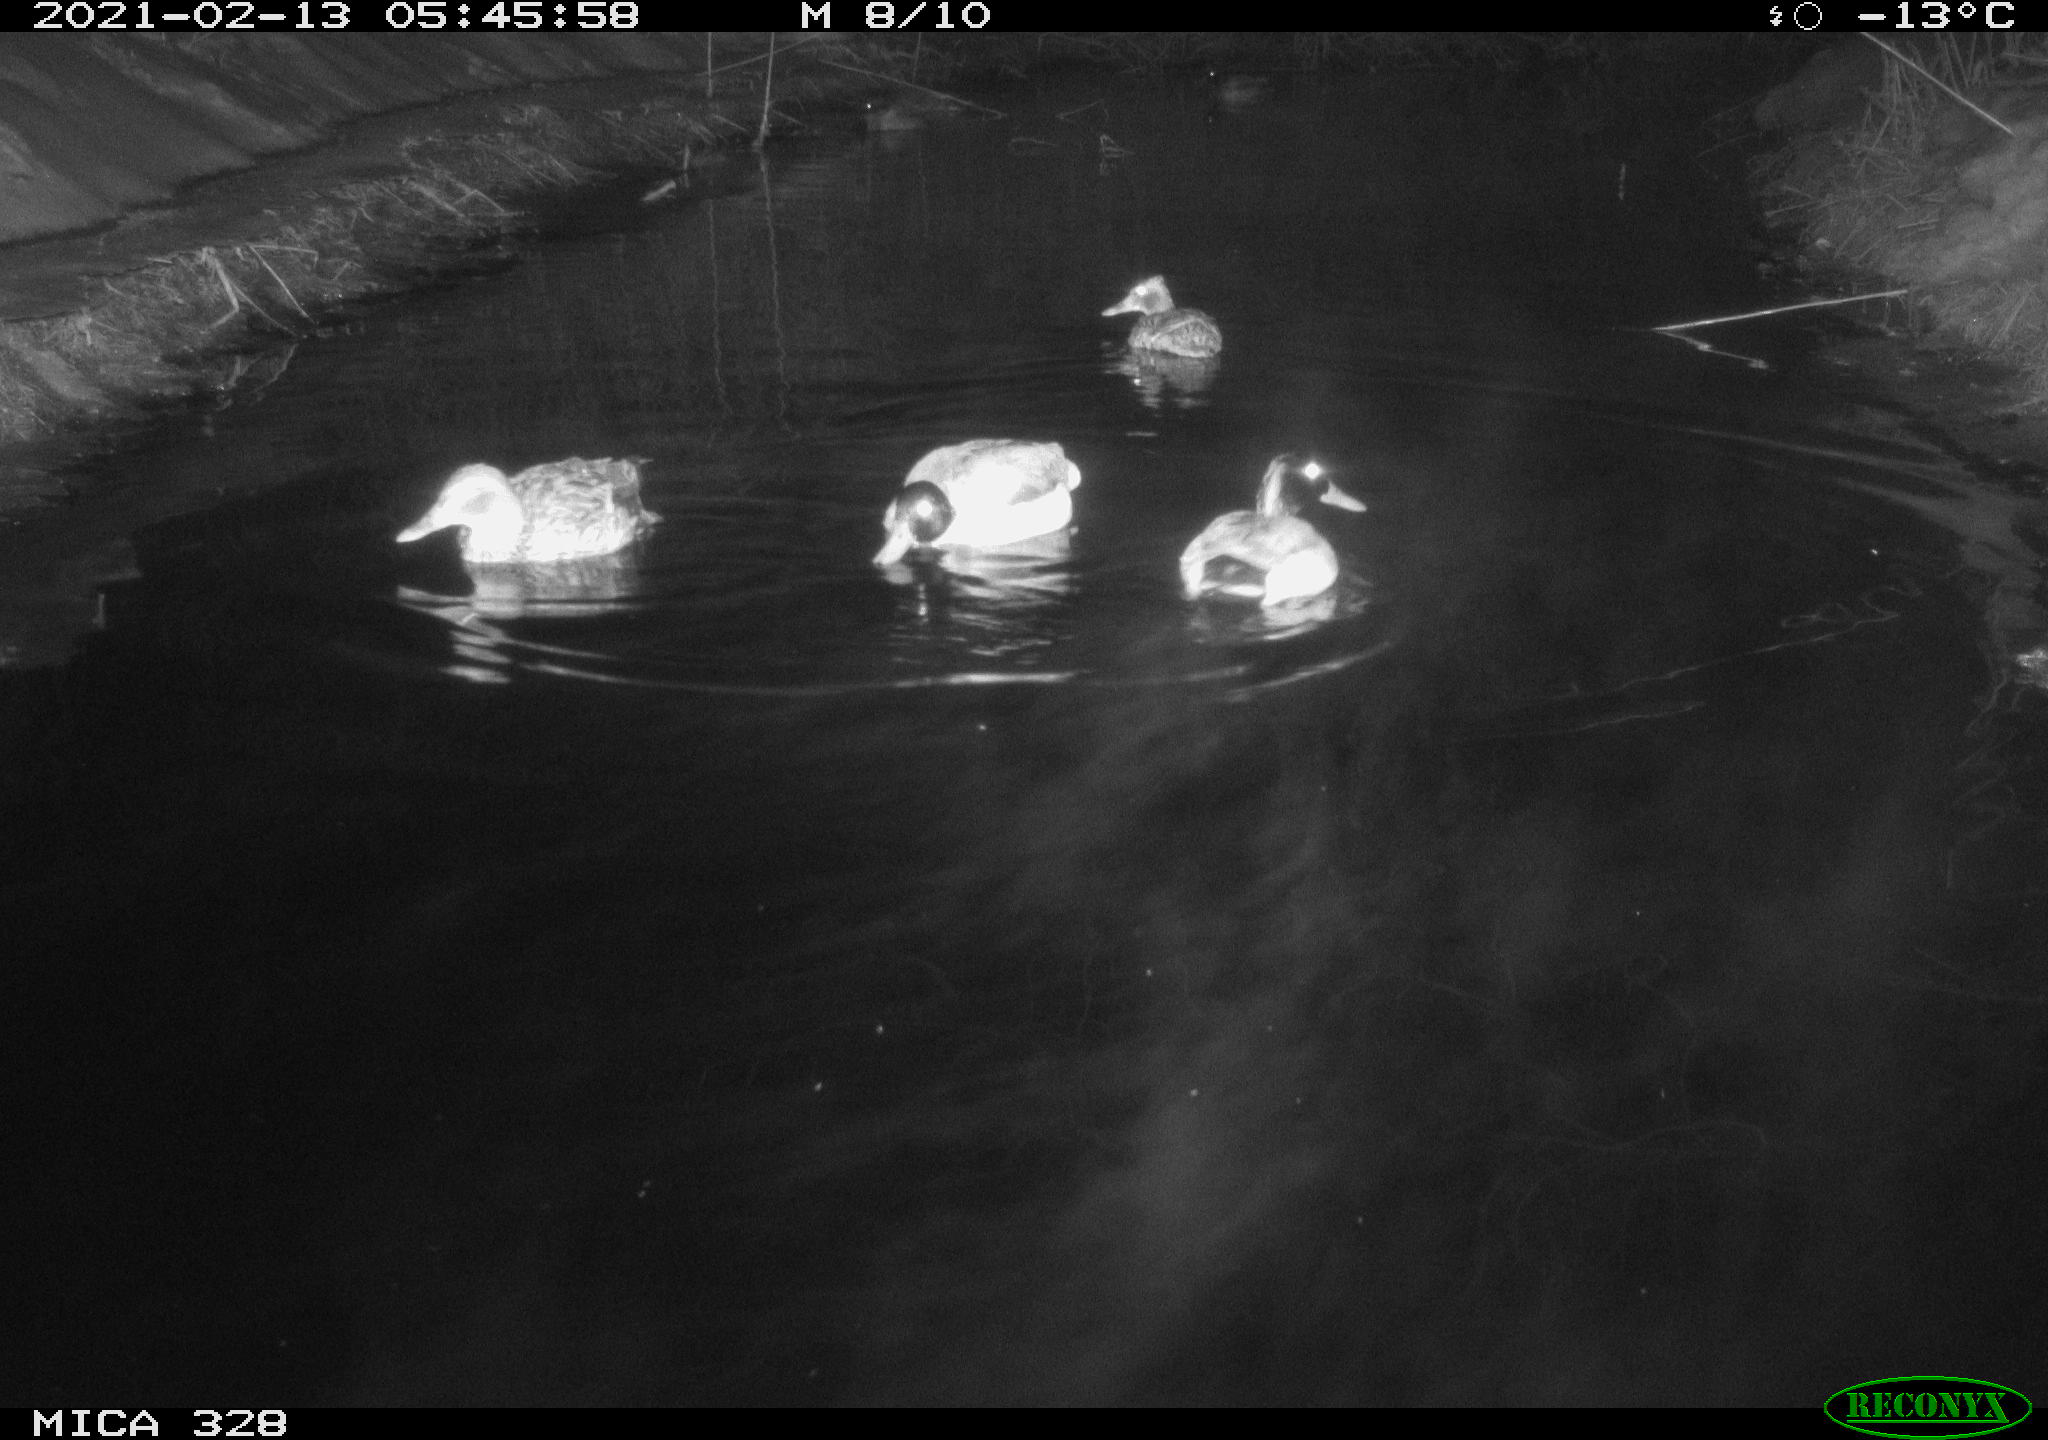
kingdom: Animalia
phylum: Chordata
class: Aves
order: Anseriformes
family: Anatidae
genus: Anas
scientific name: Anas platyrhynchos
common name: Mallard
